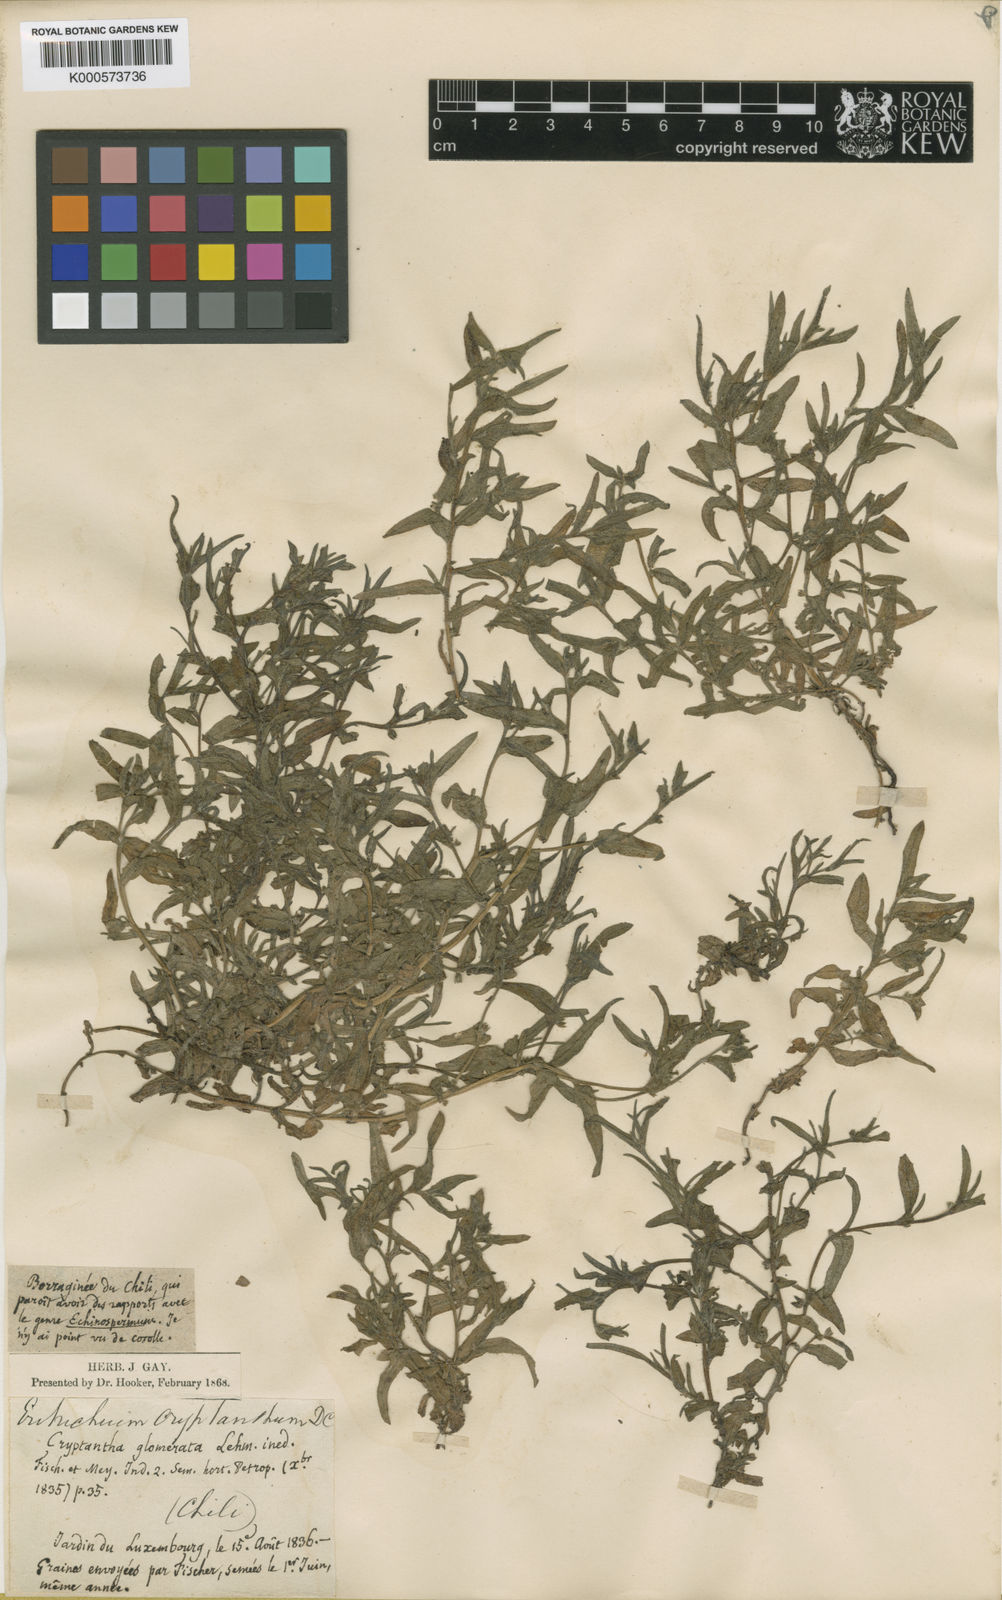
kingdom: Plantae
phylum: Tracheophyta
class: Magnoliopsida
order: Boraginales
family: Boraginaceae
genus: Cryptantha
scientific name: Cryptantha clandestina
